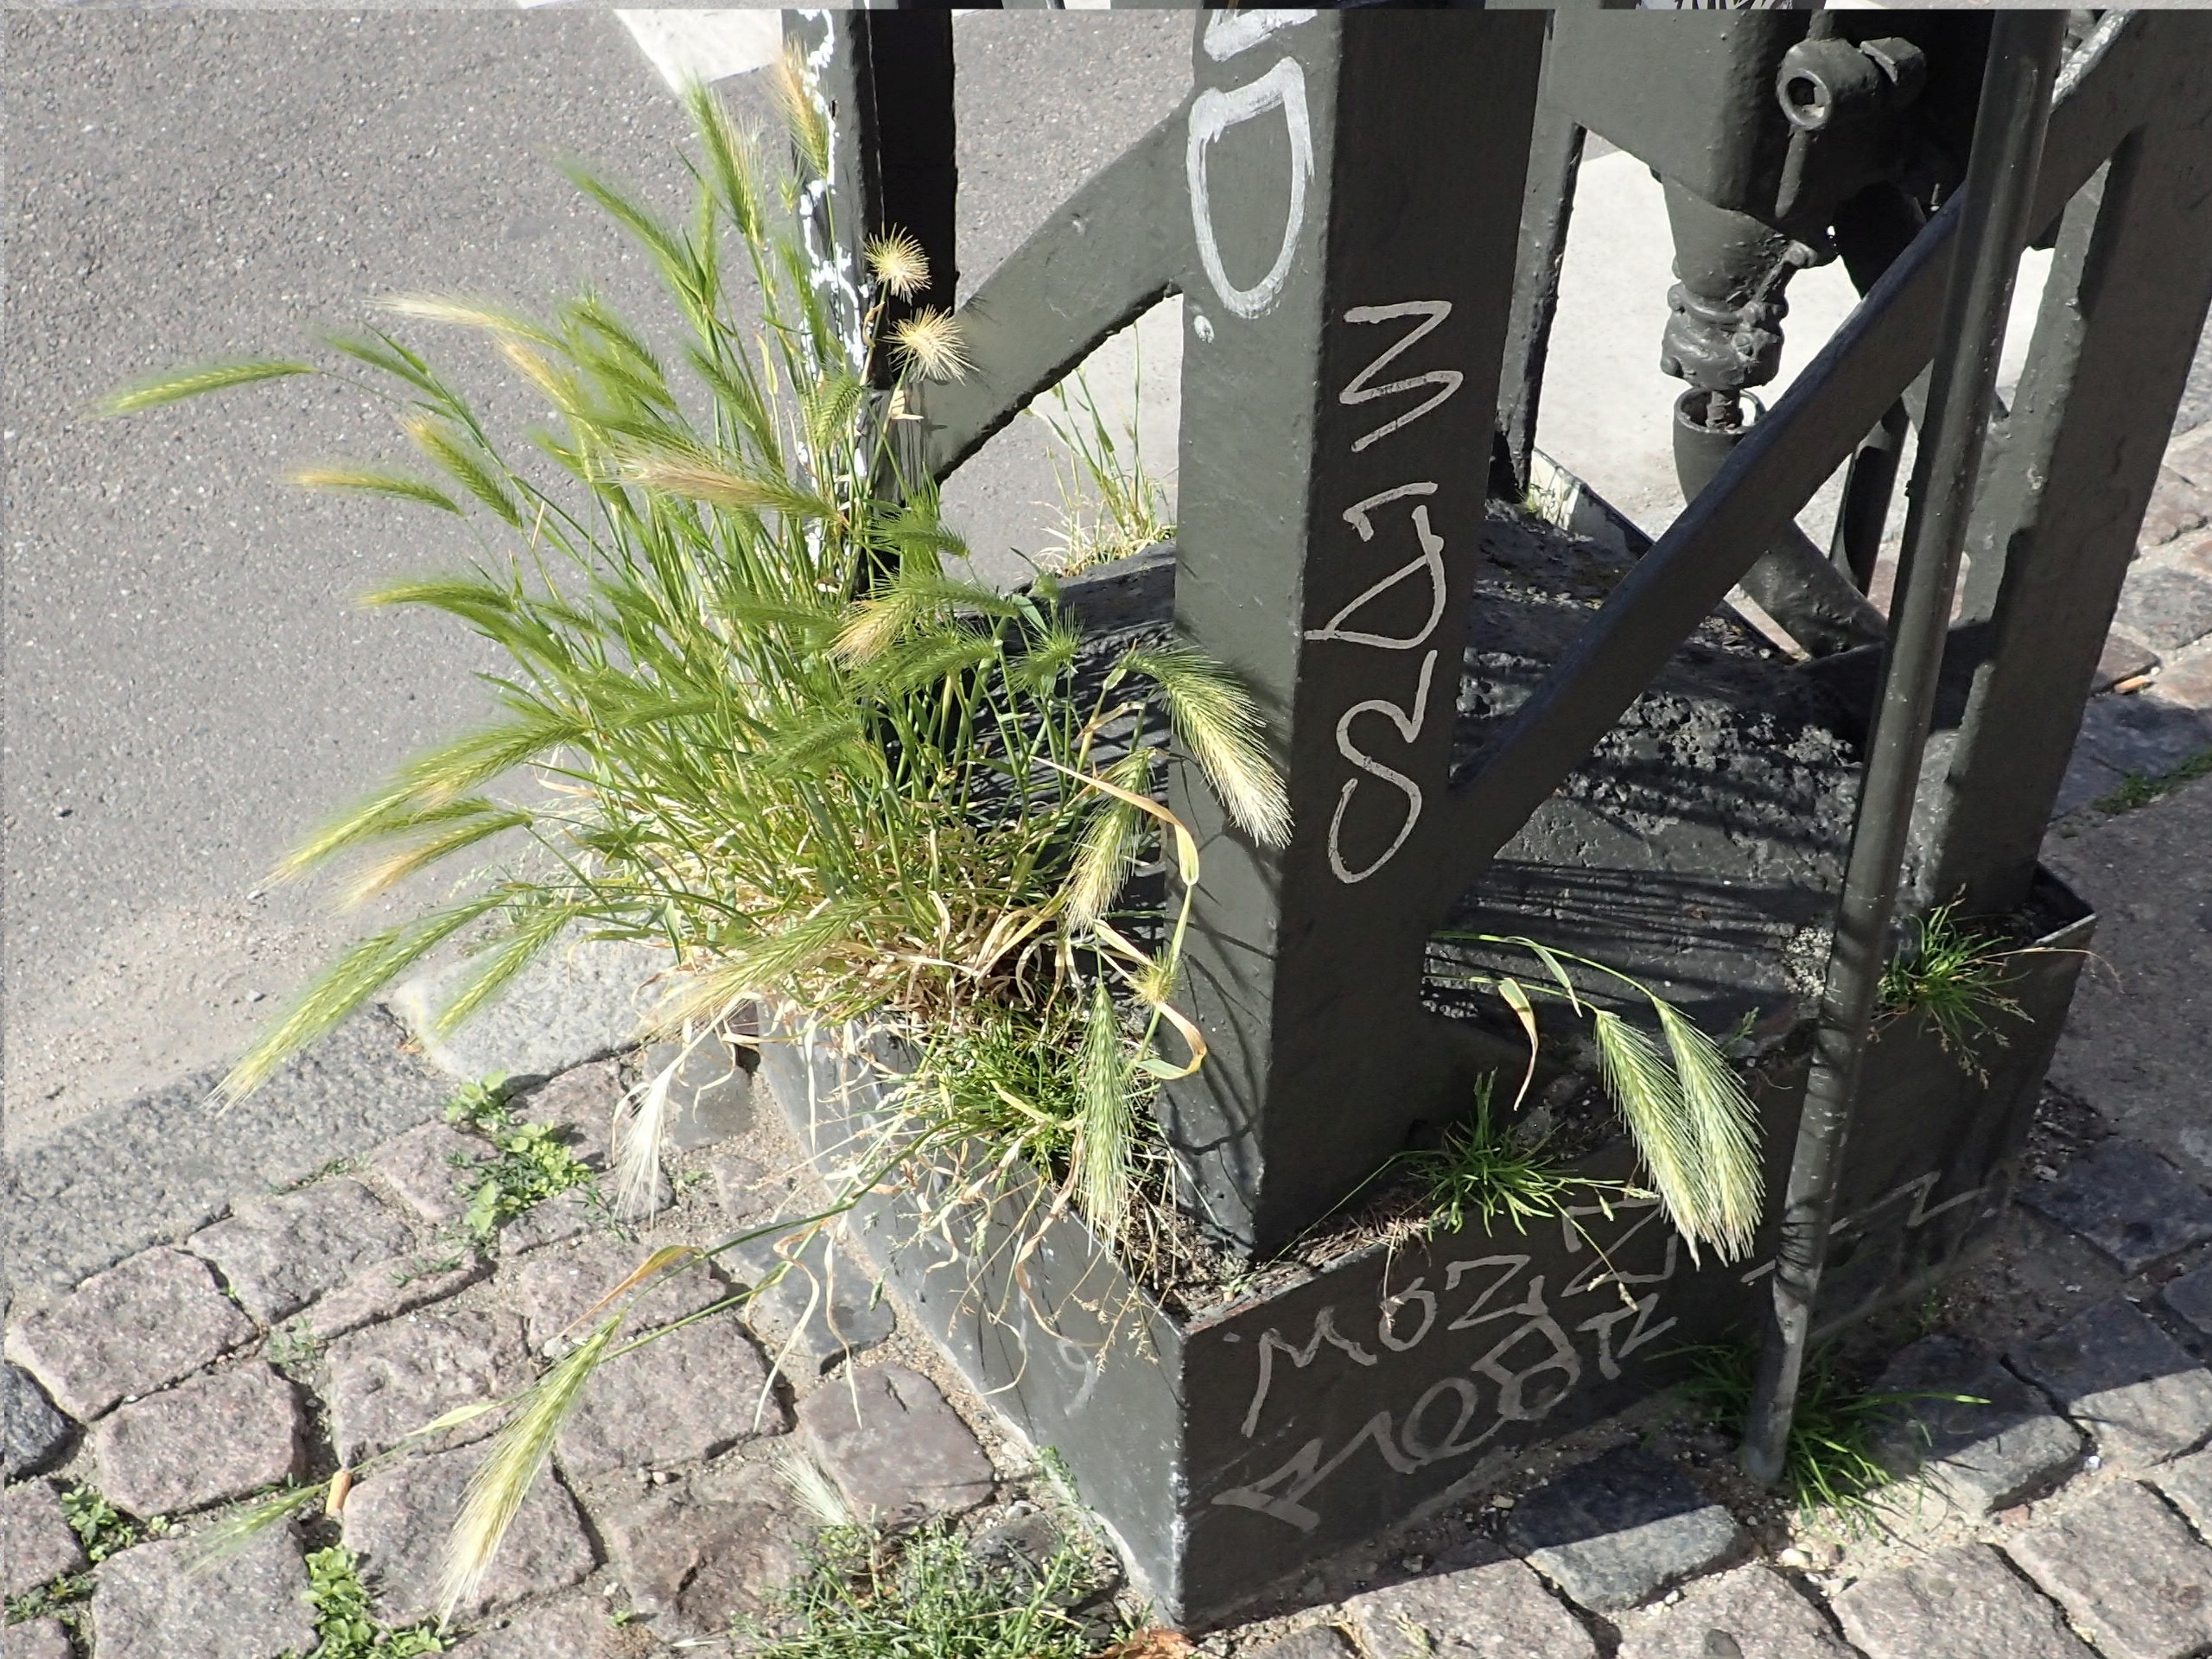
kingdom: Plantae
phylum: Tracheophyta
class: Liliopsida
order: Poales
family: Poaceae
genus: Hordeum
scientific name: Hordeum murinum
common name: Gold byg
